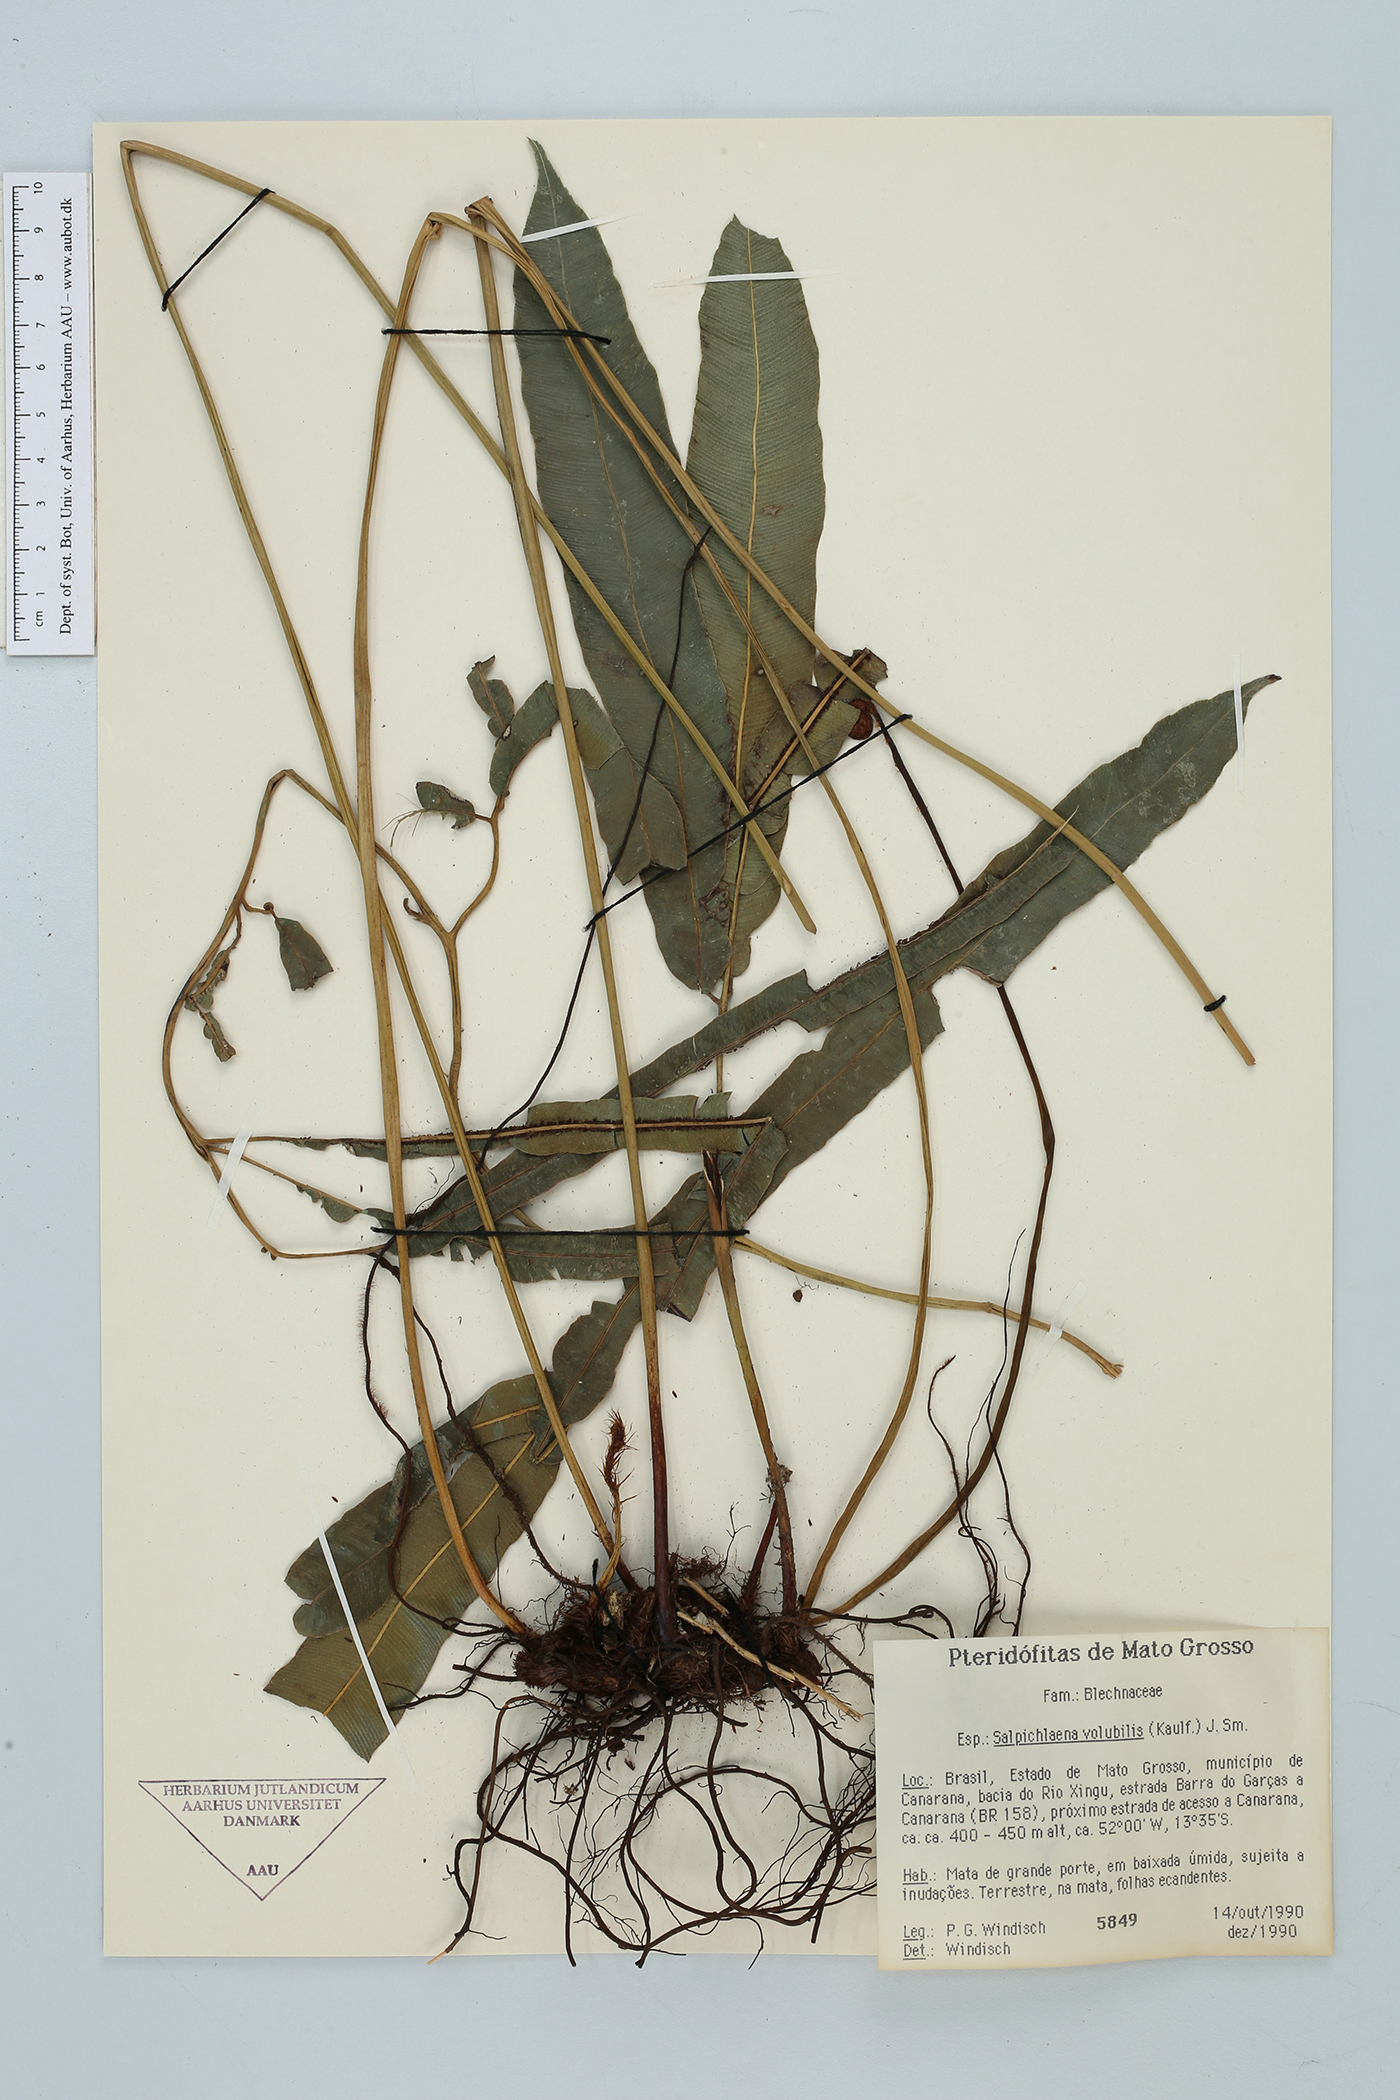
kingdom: Plantae
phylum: Tracheophyta
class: Polypodiopsida
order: Polypodiales
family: Blechnaceae
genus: Salpichlaena
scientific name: Salpichlaena papyrus
